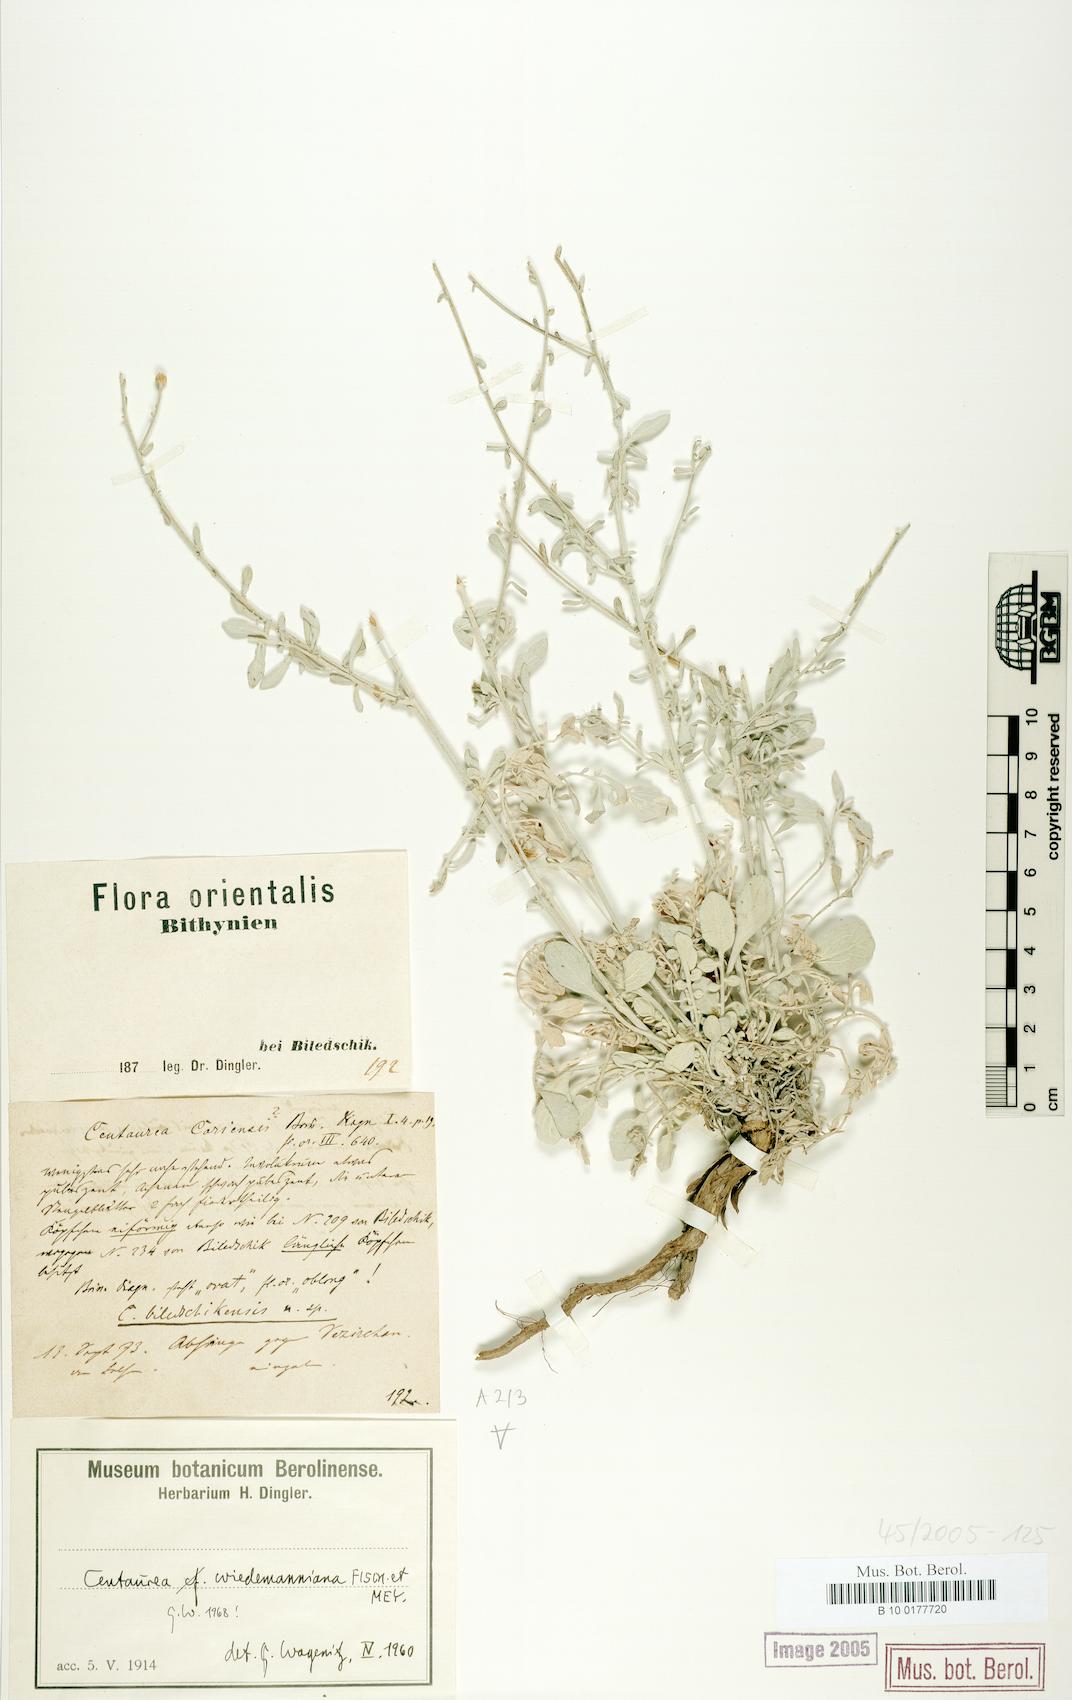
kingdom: Plantae
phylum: Tracheophyta
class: Magnoliopsida
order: Asterales
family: Asteraceae
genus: Centaurea
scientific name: Centaurea wiedemanniana
